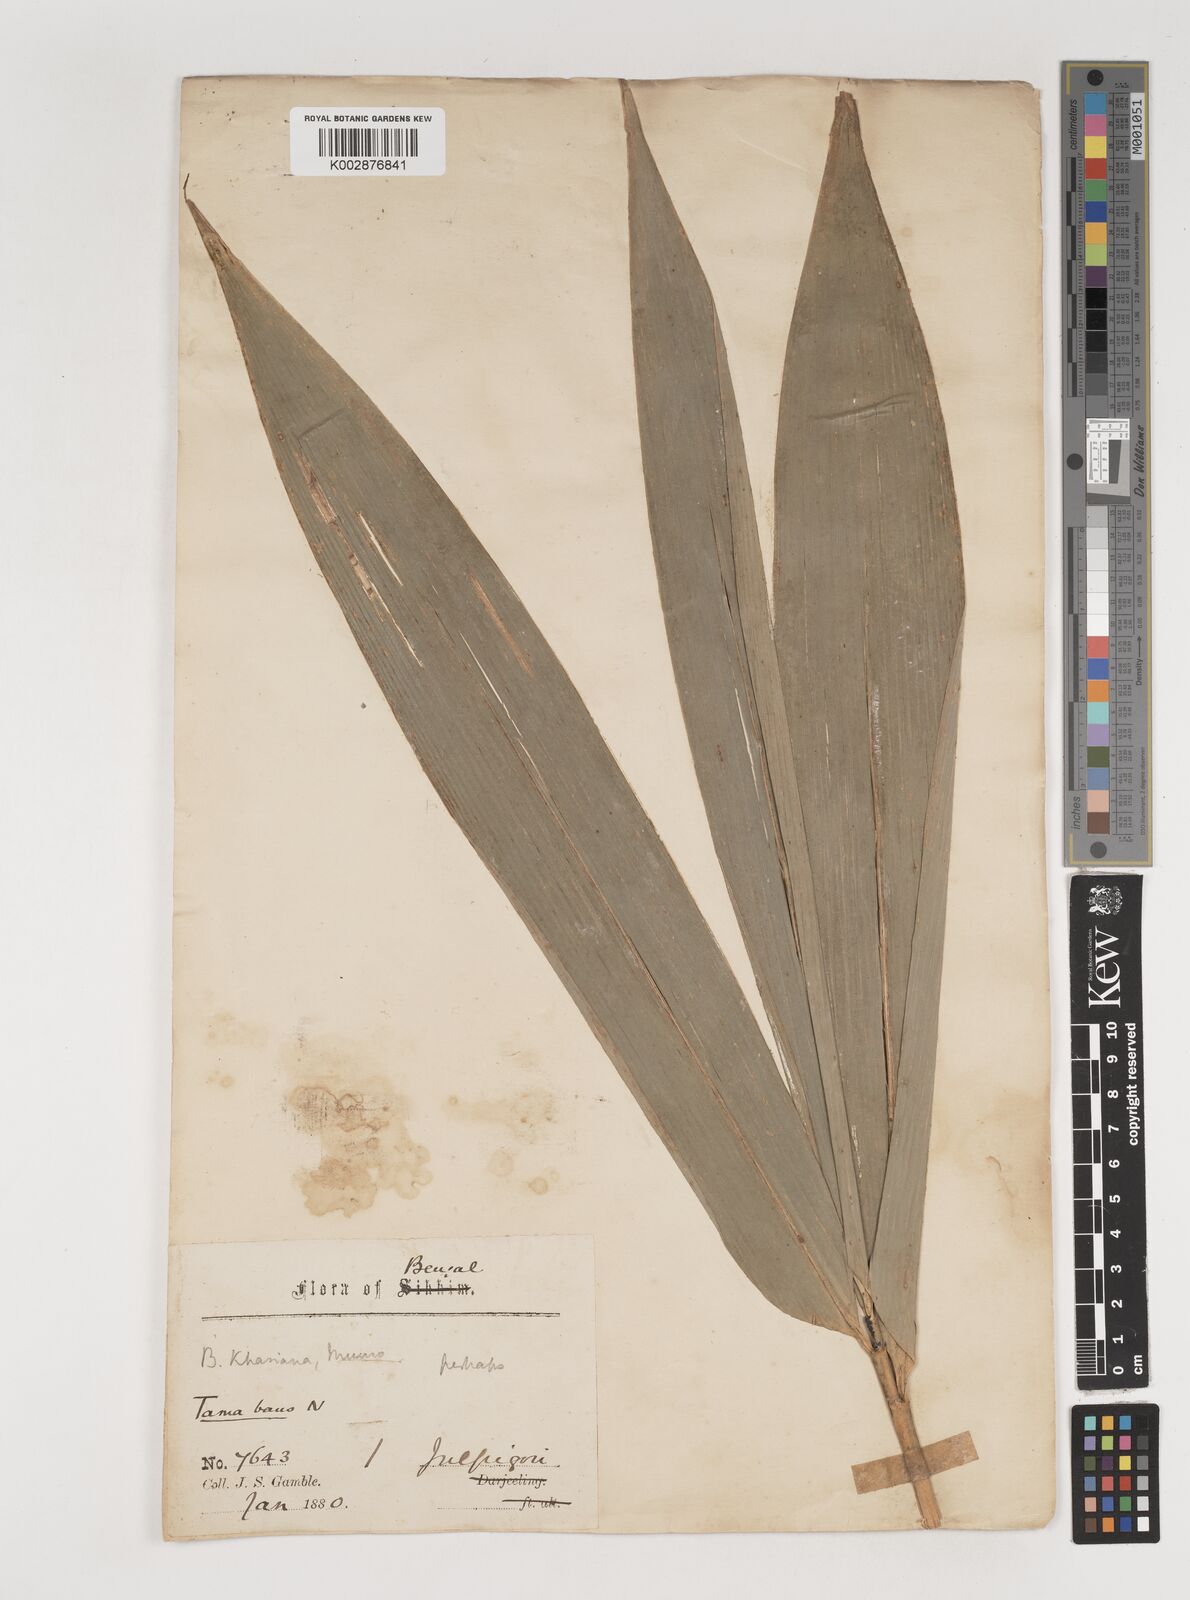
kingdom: Plantae
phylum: Tracheophyta
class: Liliopsida
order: Poales
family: Poaceae
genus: Bambusa
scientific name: Bambusa teres
